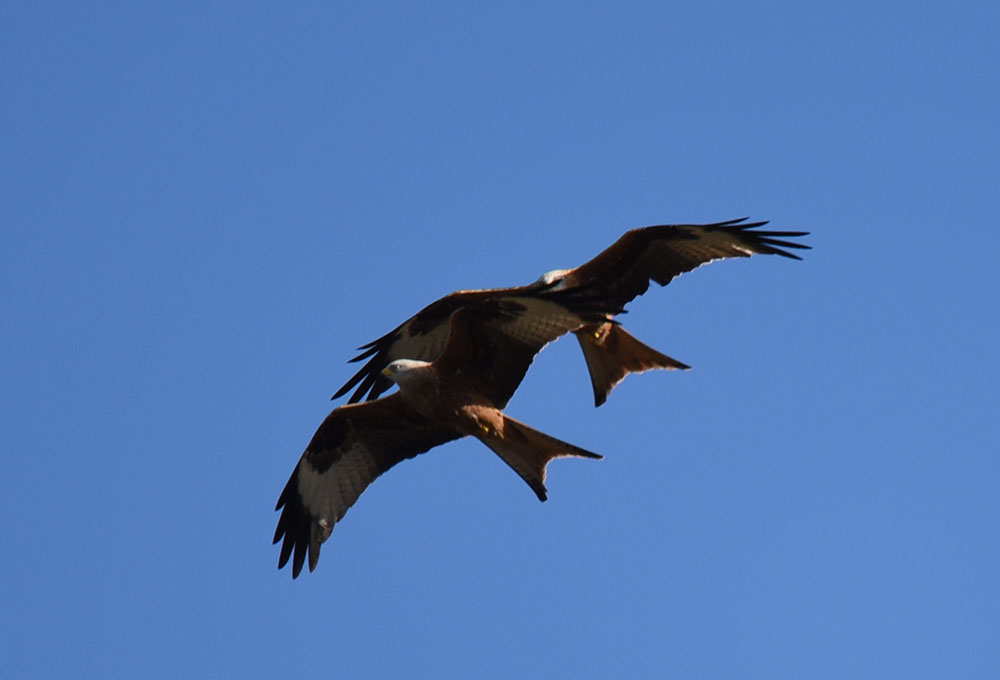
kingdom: Animalia
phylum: Chordata
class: Aves
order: Accipitriformes
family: Accipitridae
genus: Milvus
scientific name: Milvus milvus
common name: Red kite
